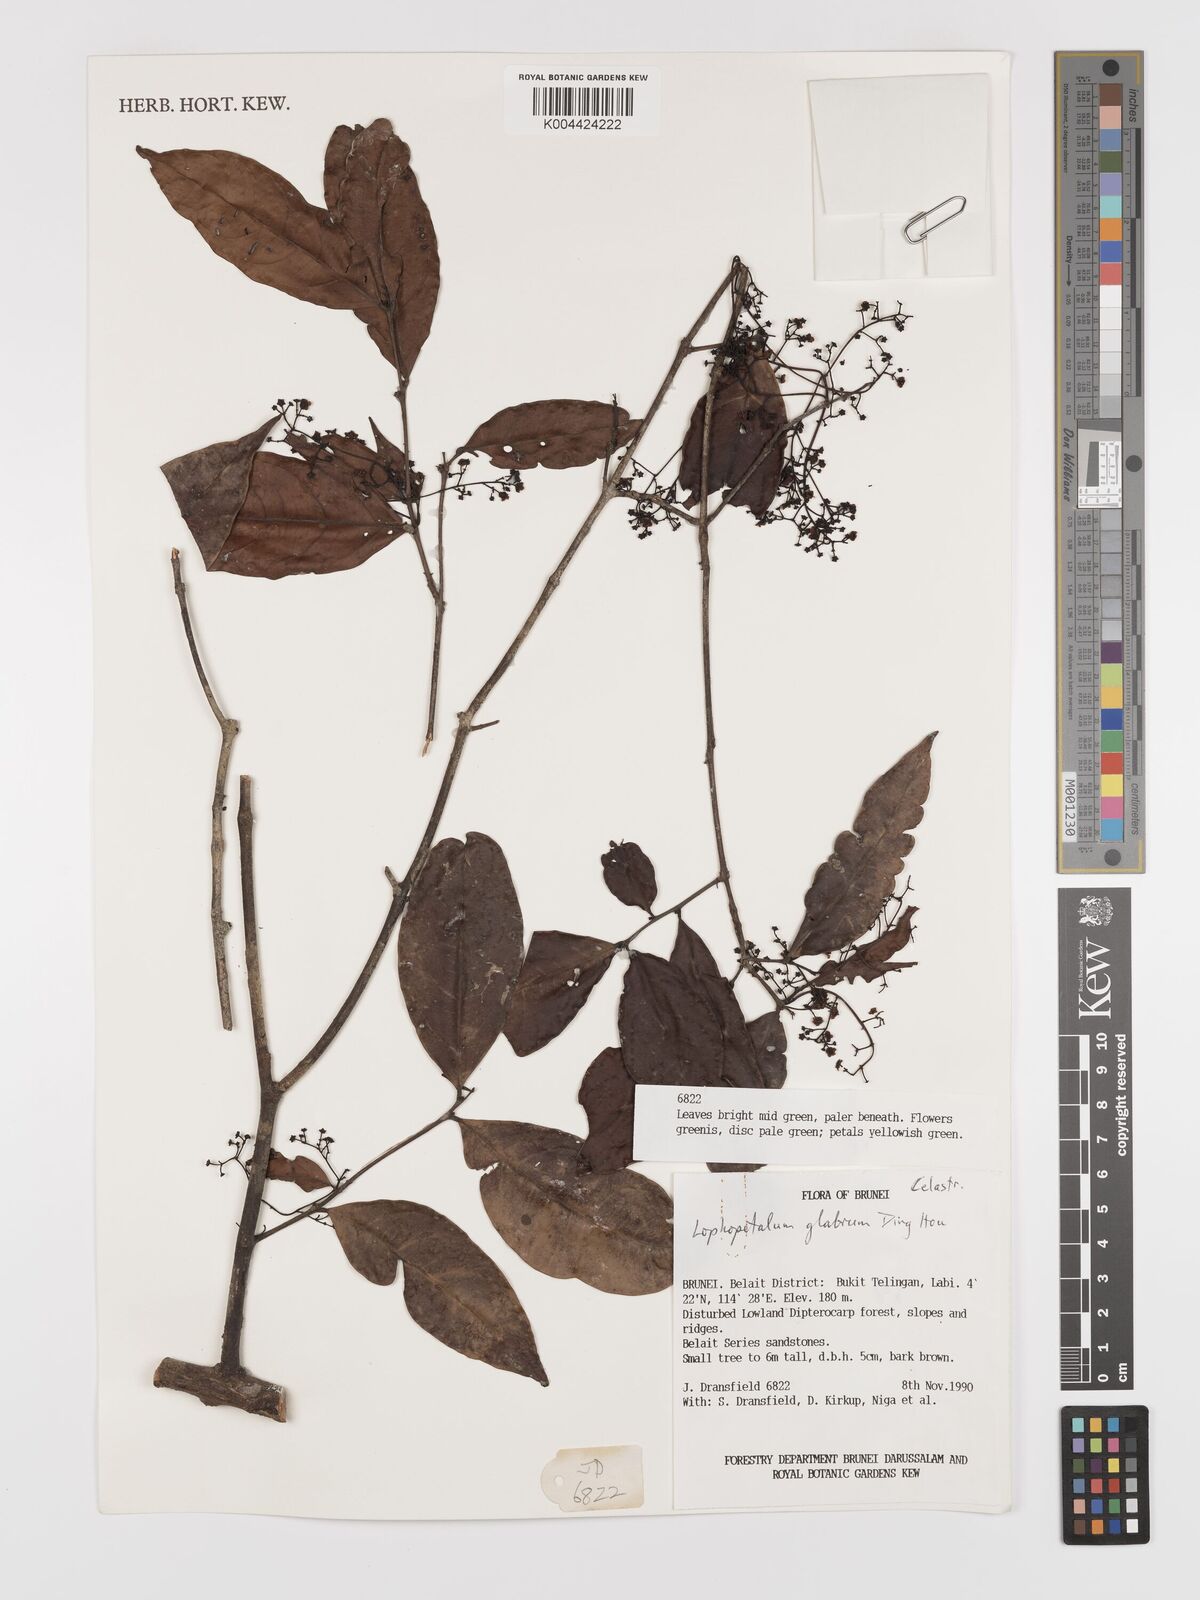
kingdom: Plantae
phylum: Tracheophyta
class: Magnoliopsida
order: Celastrales
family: Celastraceae
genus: Lophopetalum
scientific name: Lophopetalum glabrum
